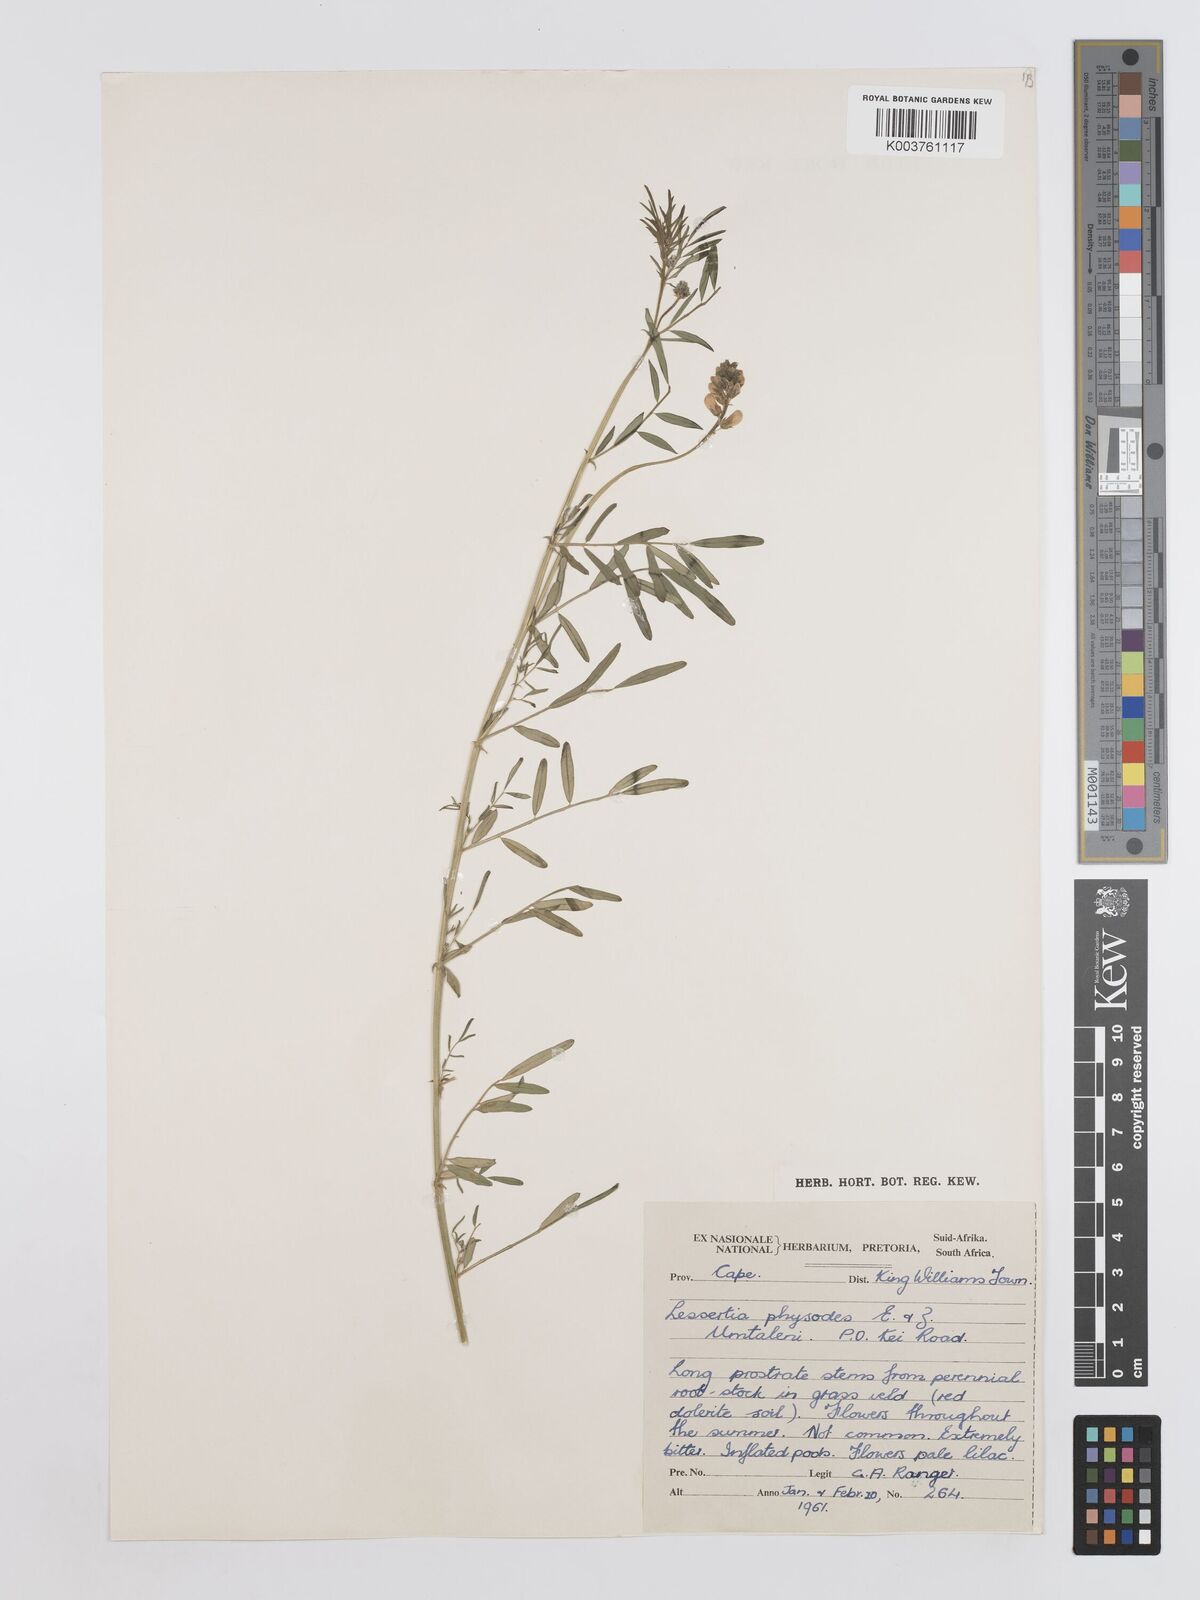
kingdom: Plantae
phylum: Tracheophyta
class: Magnoliopsida
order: Fabales
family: Fabaceae
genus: Lessertia
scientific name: Lessertia physodes
